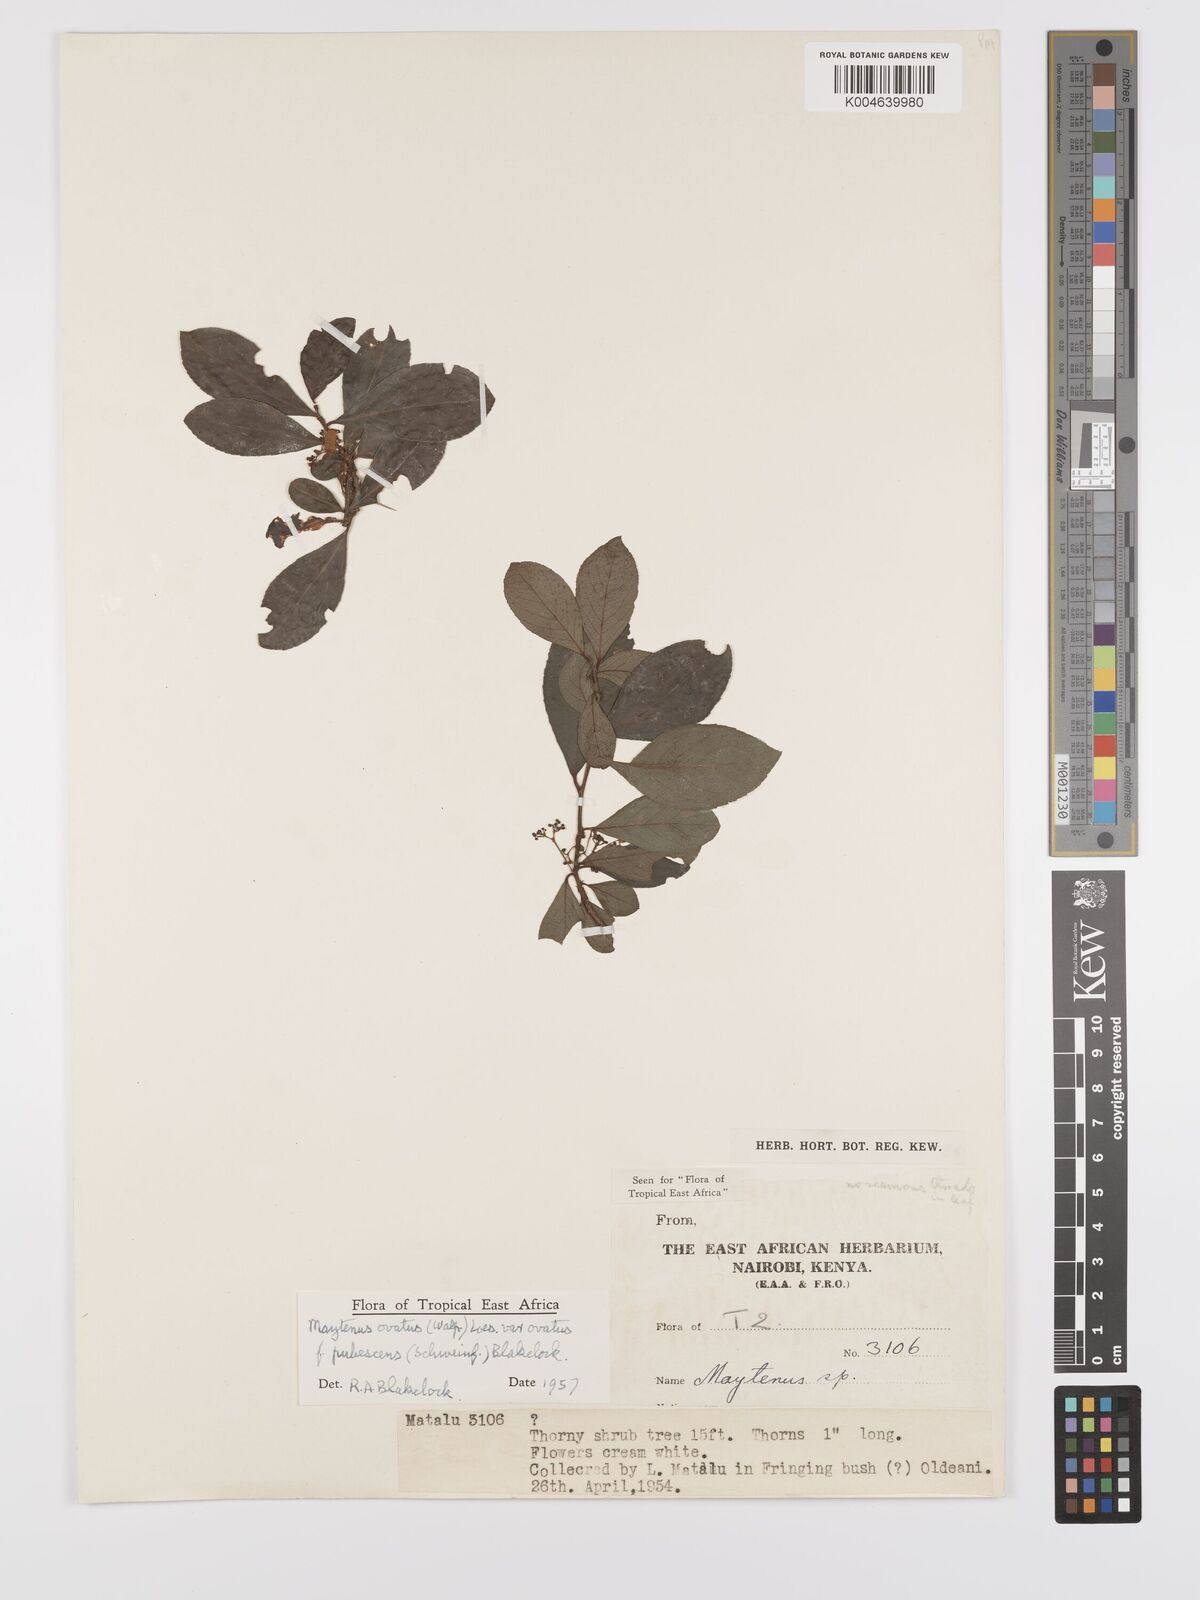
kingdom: Plantae
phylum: Tracheophyta
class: Magnoliopsida
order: Celastrales
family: Celastraceae
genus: Gymnosporia
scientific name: Gymnosporia arbutifolia
